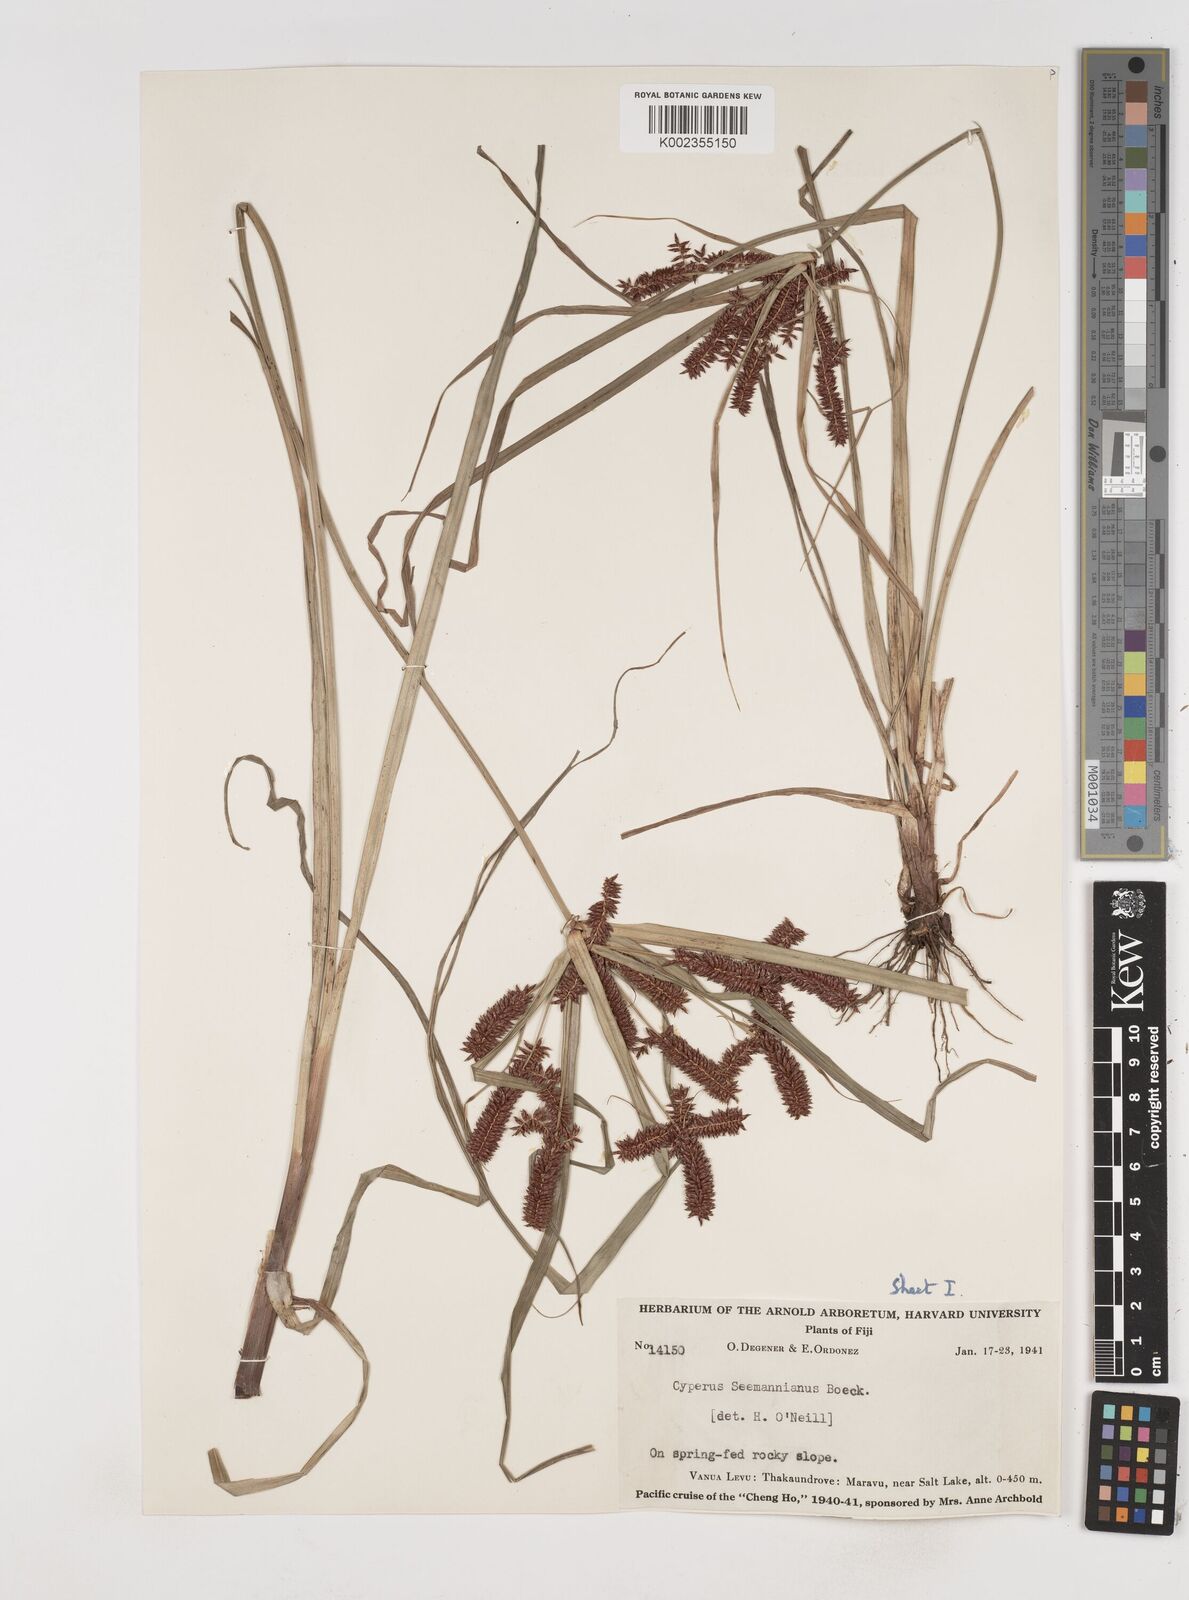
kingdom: Plantae
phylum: Tracheophyta
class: Liliopsida
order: Poales
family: Cyperaceae
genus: Cyperus
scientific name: Cyperus seemannianus
